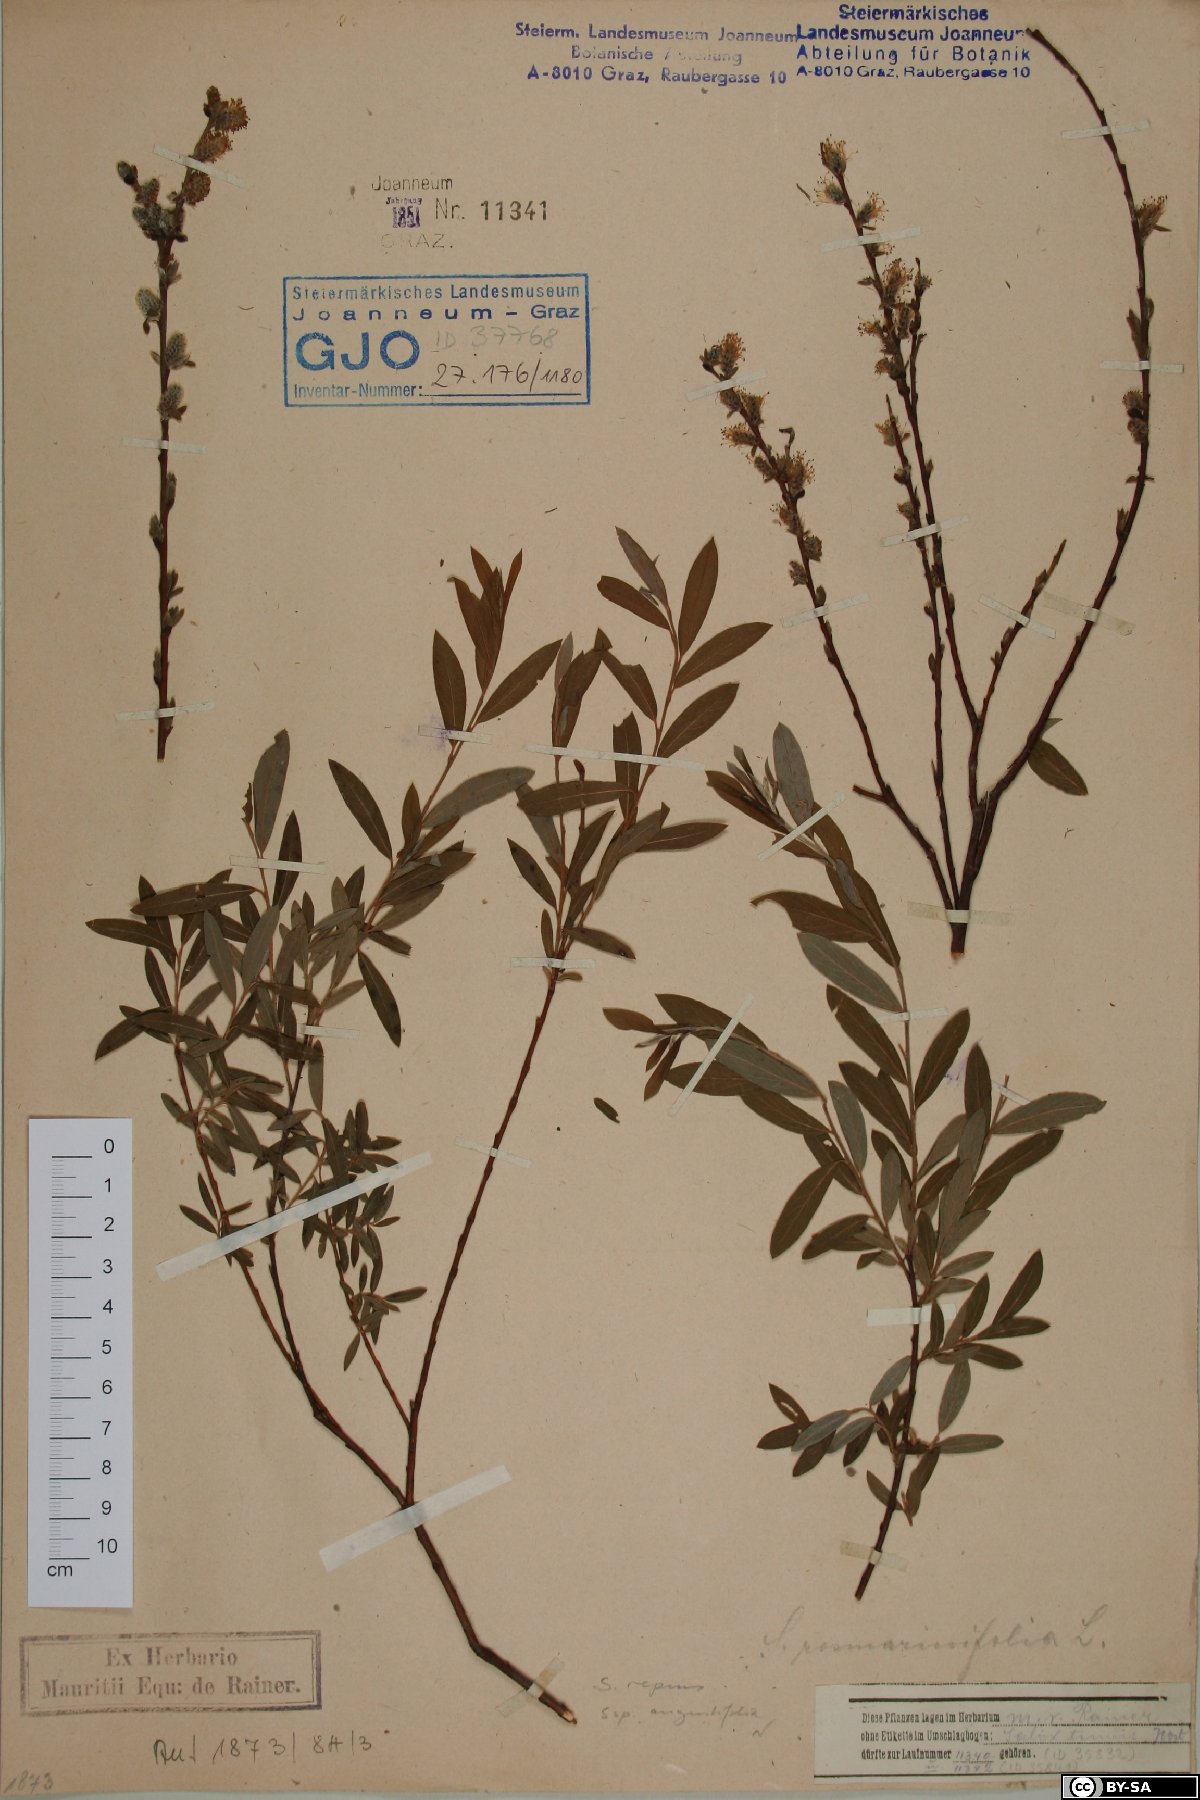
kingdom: Plantae
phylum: Tracheophyta
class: Magnoliopsida
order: Malpighiales
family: Salicaceae
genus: Salix
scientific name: Salix rosmarinifolia
